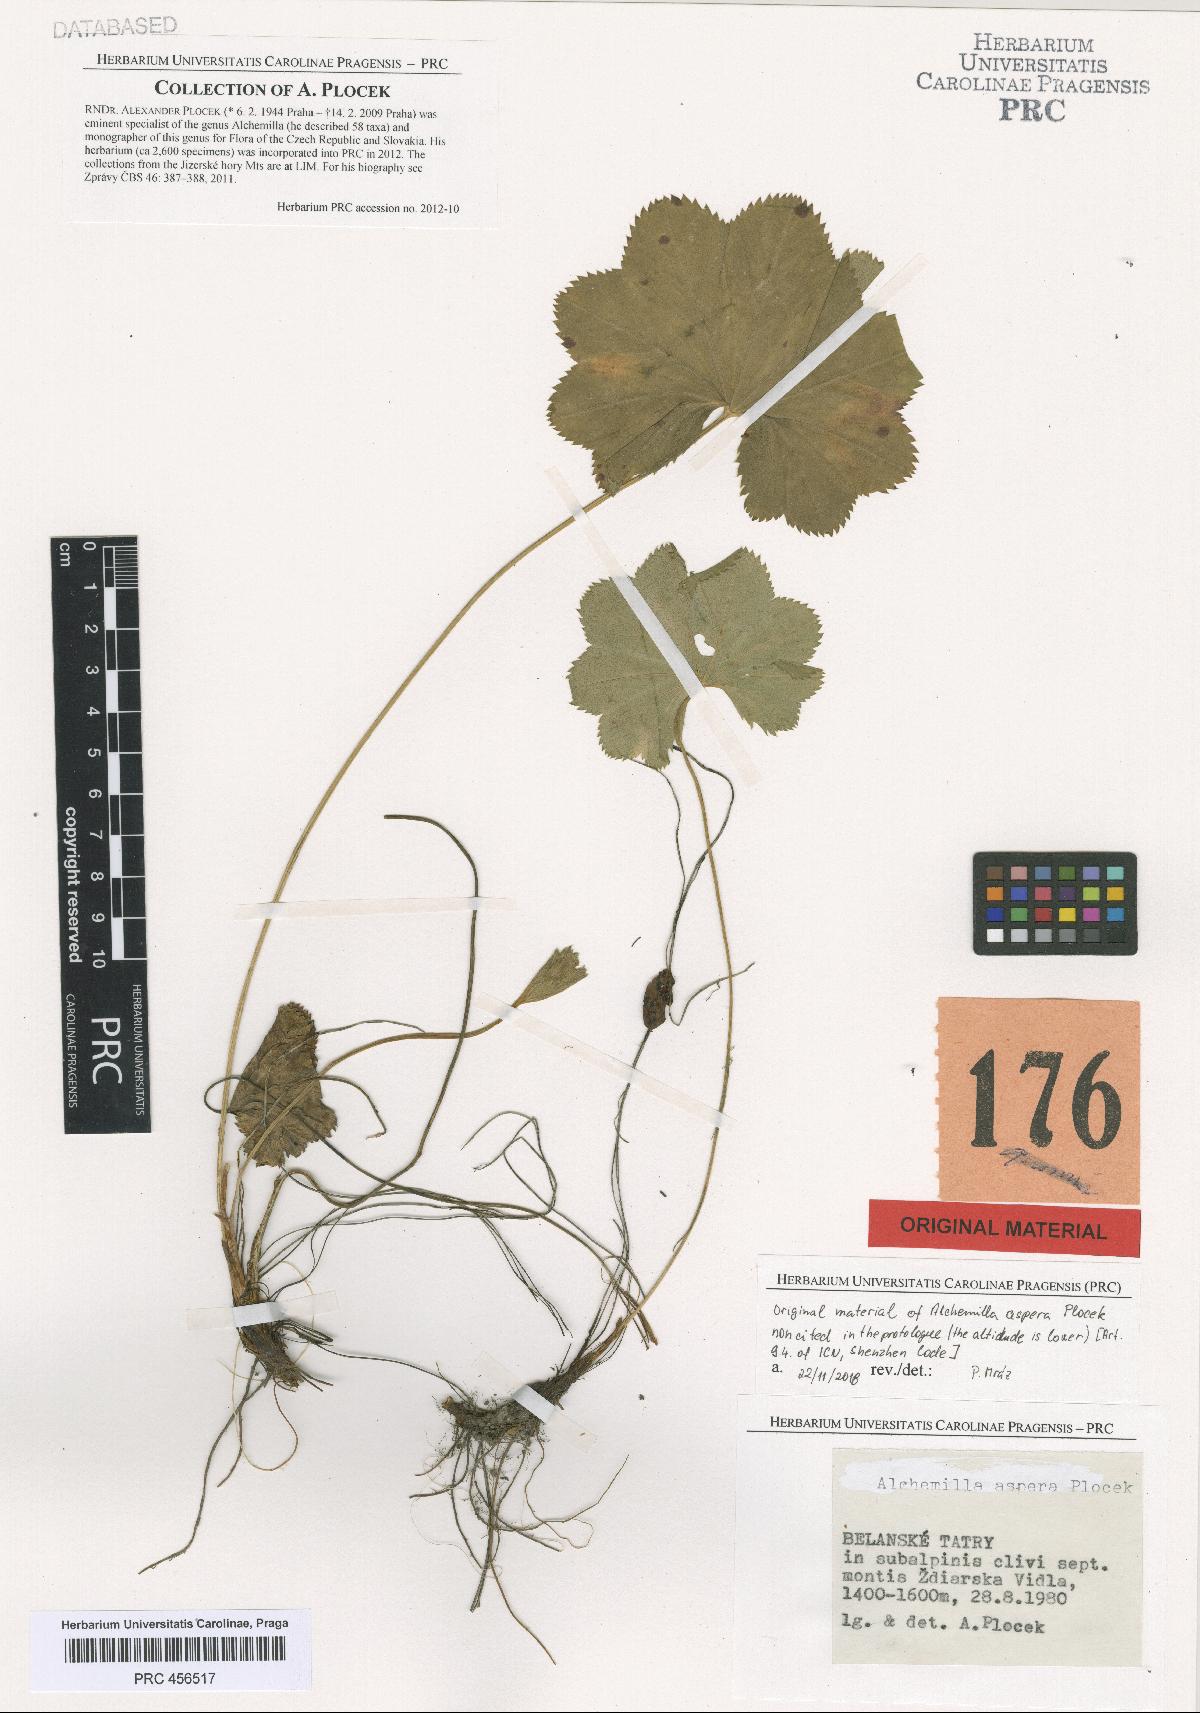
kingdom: Plantae
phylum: Tracheophyta
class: Magnoliopsida
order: Rosales
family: Rosaceae
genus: Alchemilla
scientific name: Alchemilla aspera
